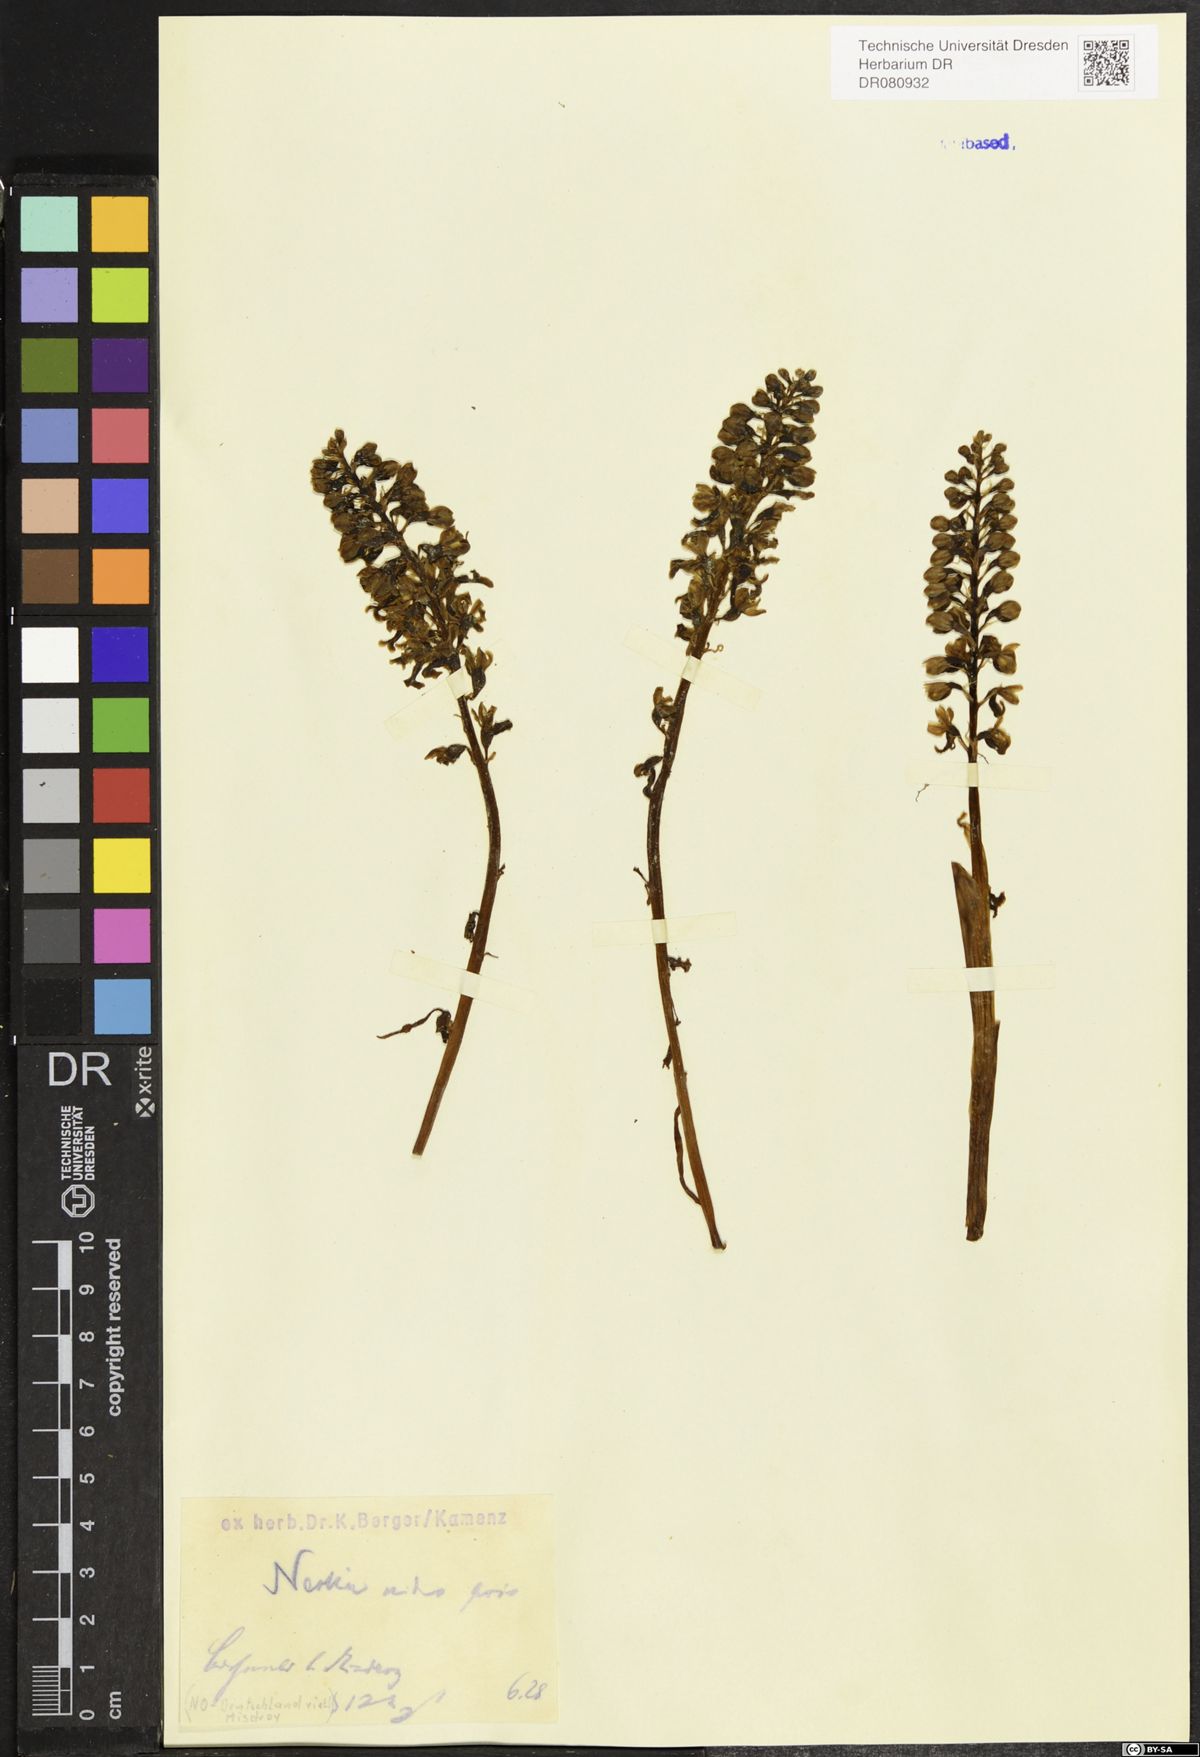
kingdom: Plantae
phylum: Tracheophyta
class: Liliopsida
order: Asparagales
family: Orchidaceae
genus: Neottia
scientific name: Neottia nidus-avis
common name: Bird's-nest orchid
